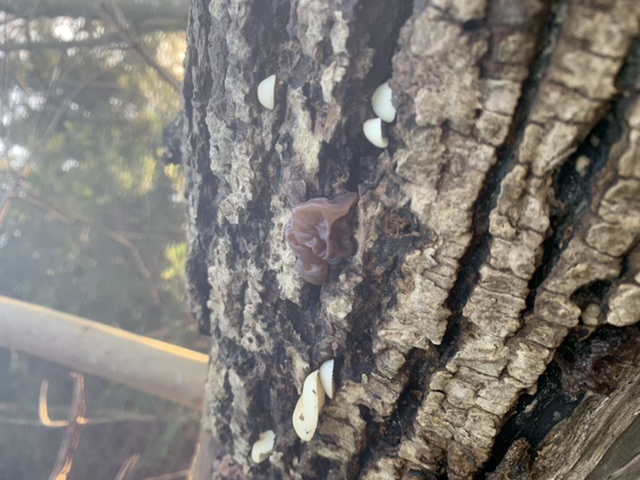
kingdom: Fungi
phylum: Basidiomycota
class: Agaricomycetes
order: Agaricales
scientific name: Agaricales
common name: champignonordenen
